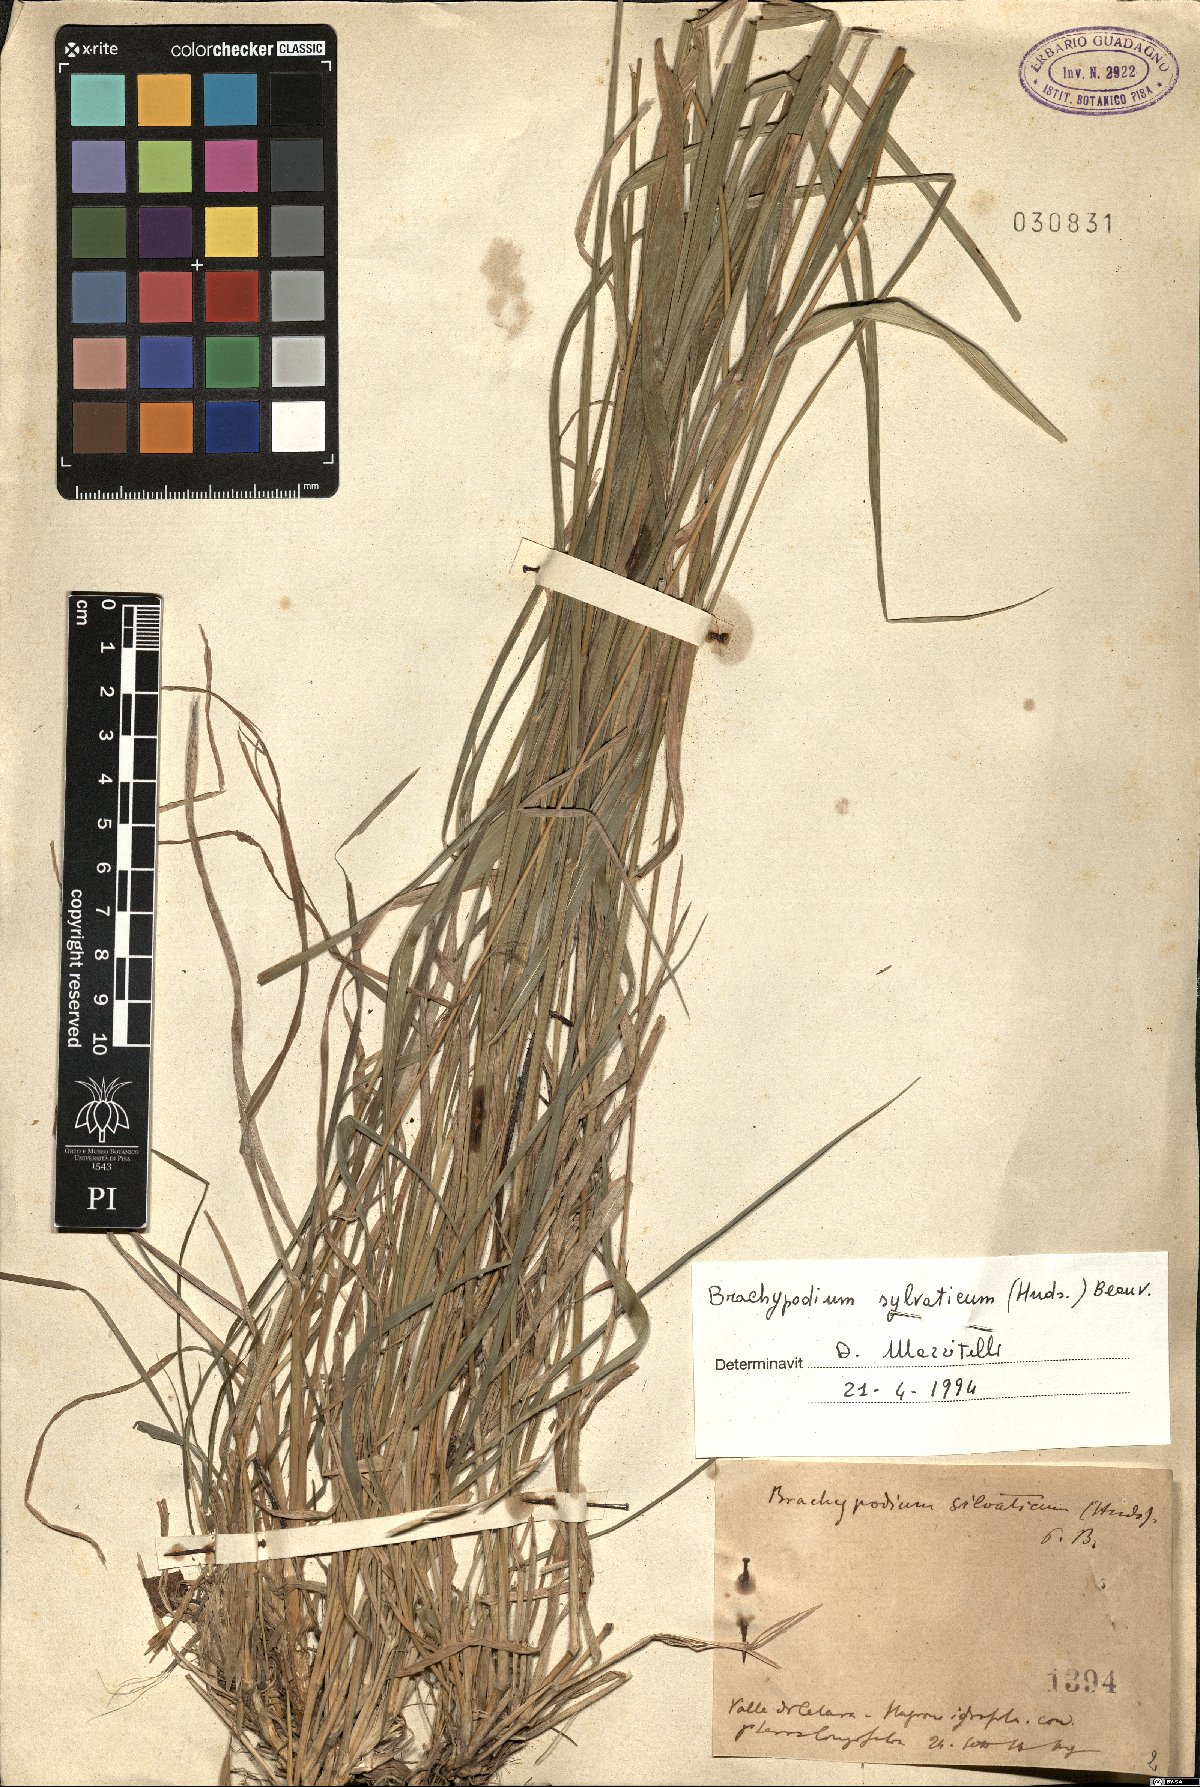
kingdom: Plantae
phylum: Tracheophyta
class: Liliopsida
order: Poales
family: Poaceae
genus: Brachypodium
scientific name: Brachypodium sylvaticum
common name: False-brome
